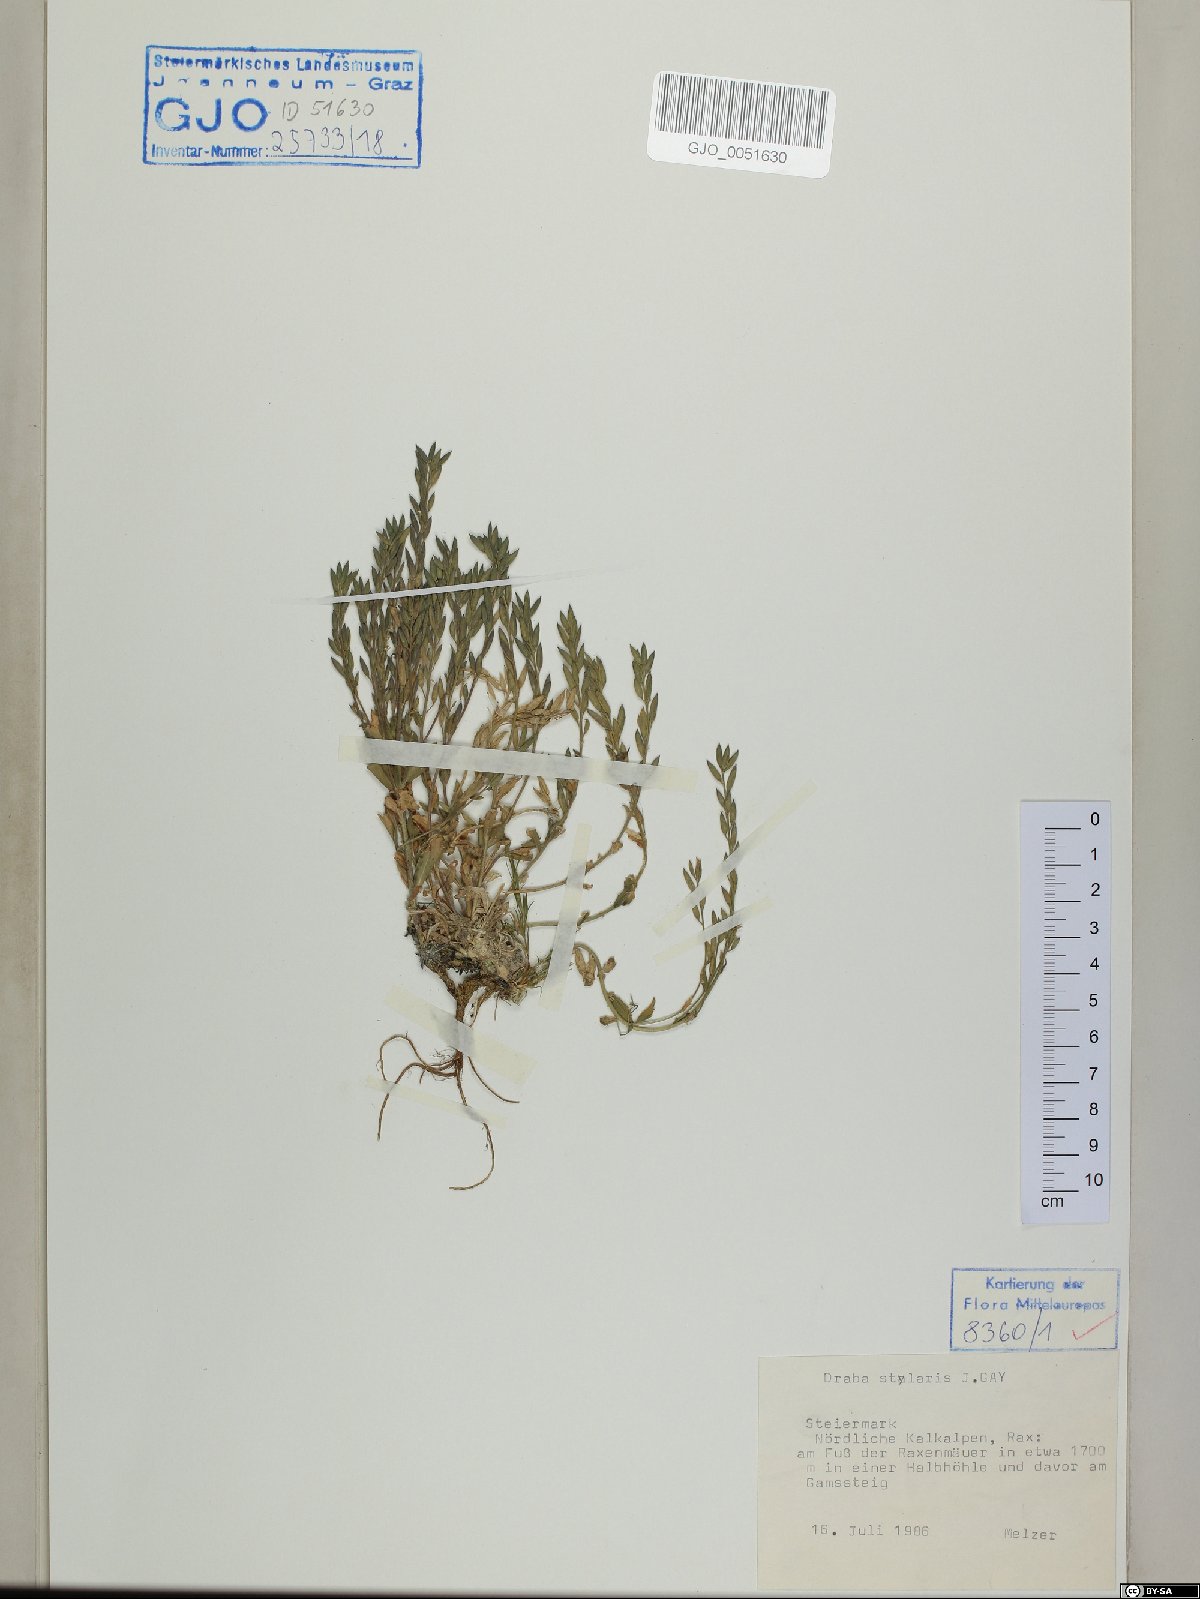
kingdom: Plantae
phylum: Tracheophyta
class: Magnoliopsida
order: Brassicales
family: Brassicaceae
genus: Draba
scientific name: Draba thomasii
